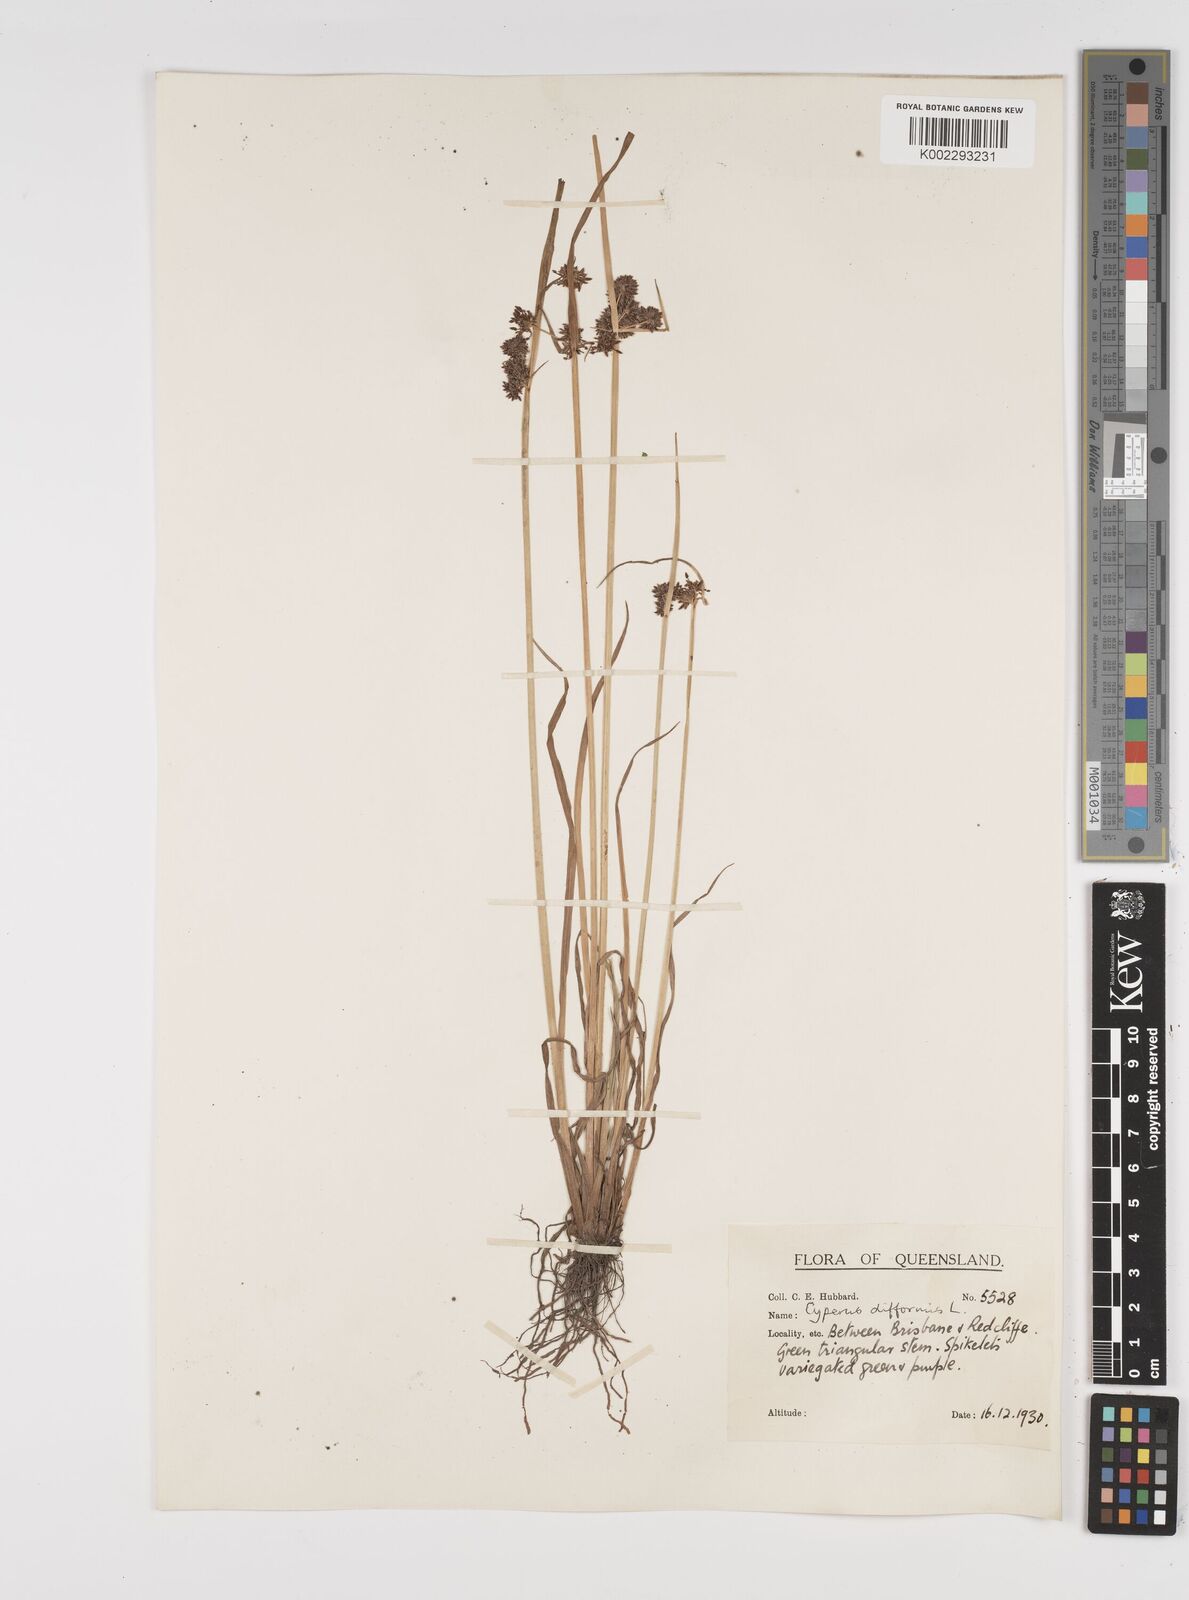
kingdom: Plantae
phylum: Tracheophyta
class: Liliopsida
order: Poales
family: Cyperaceae
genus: Cyperus
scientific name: Cyperus difformis
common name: Variable flatsedge
